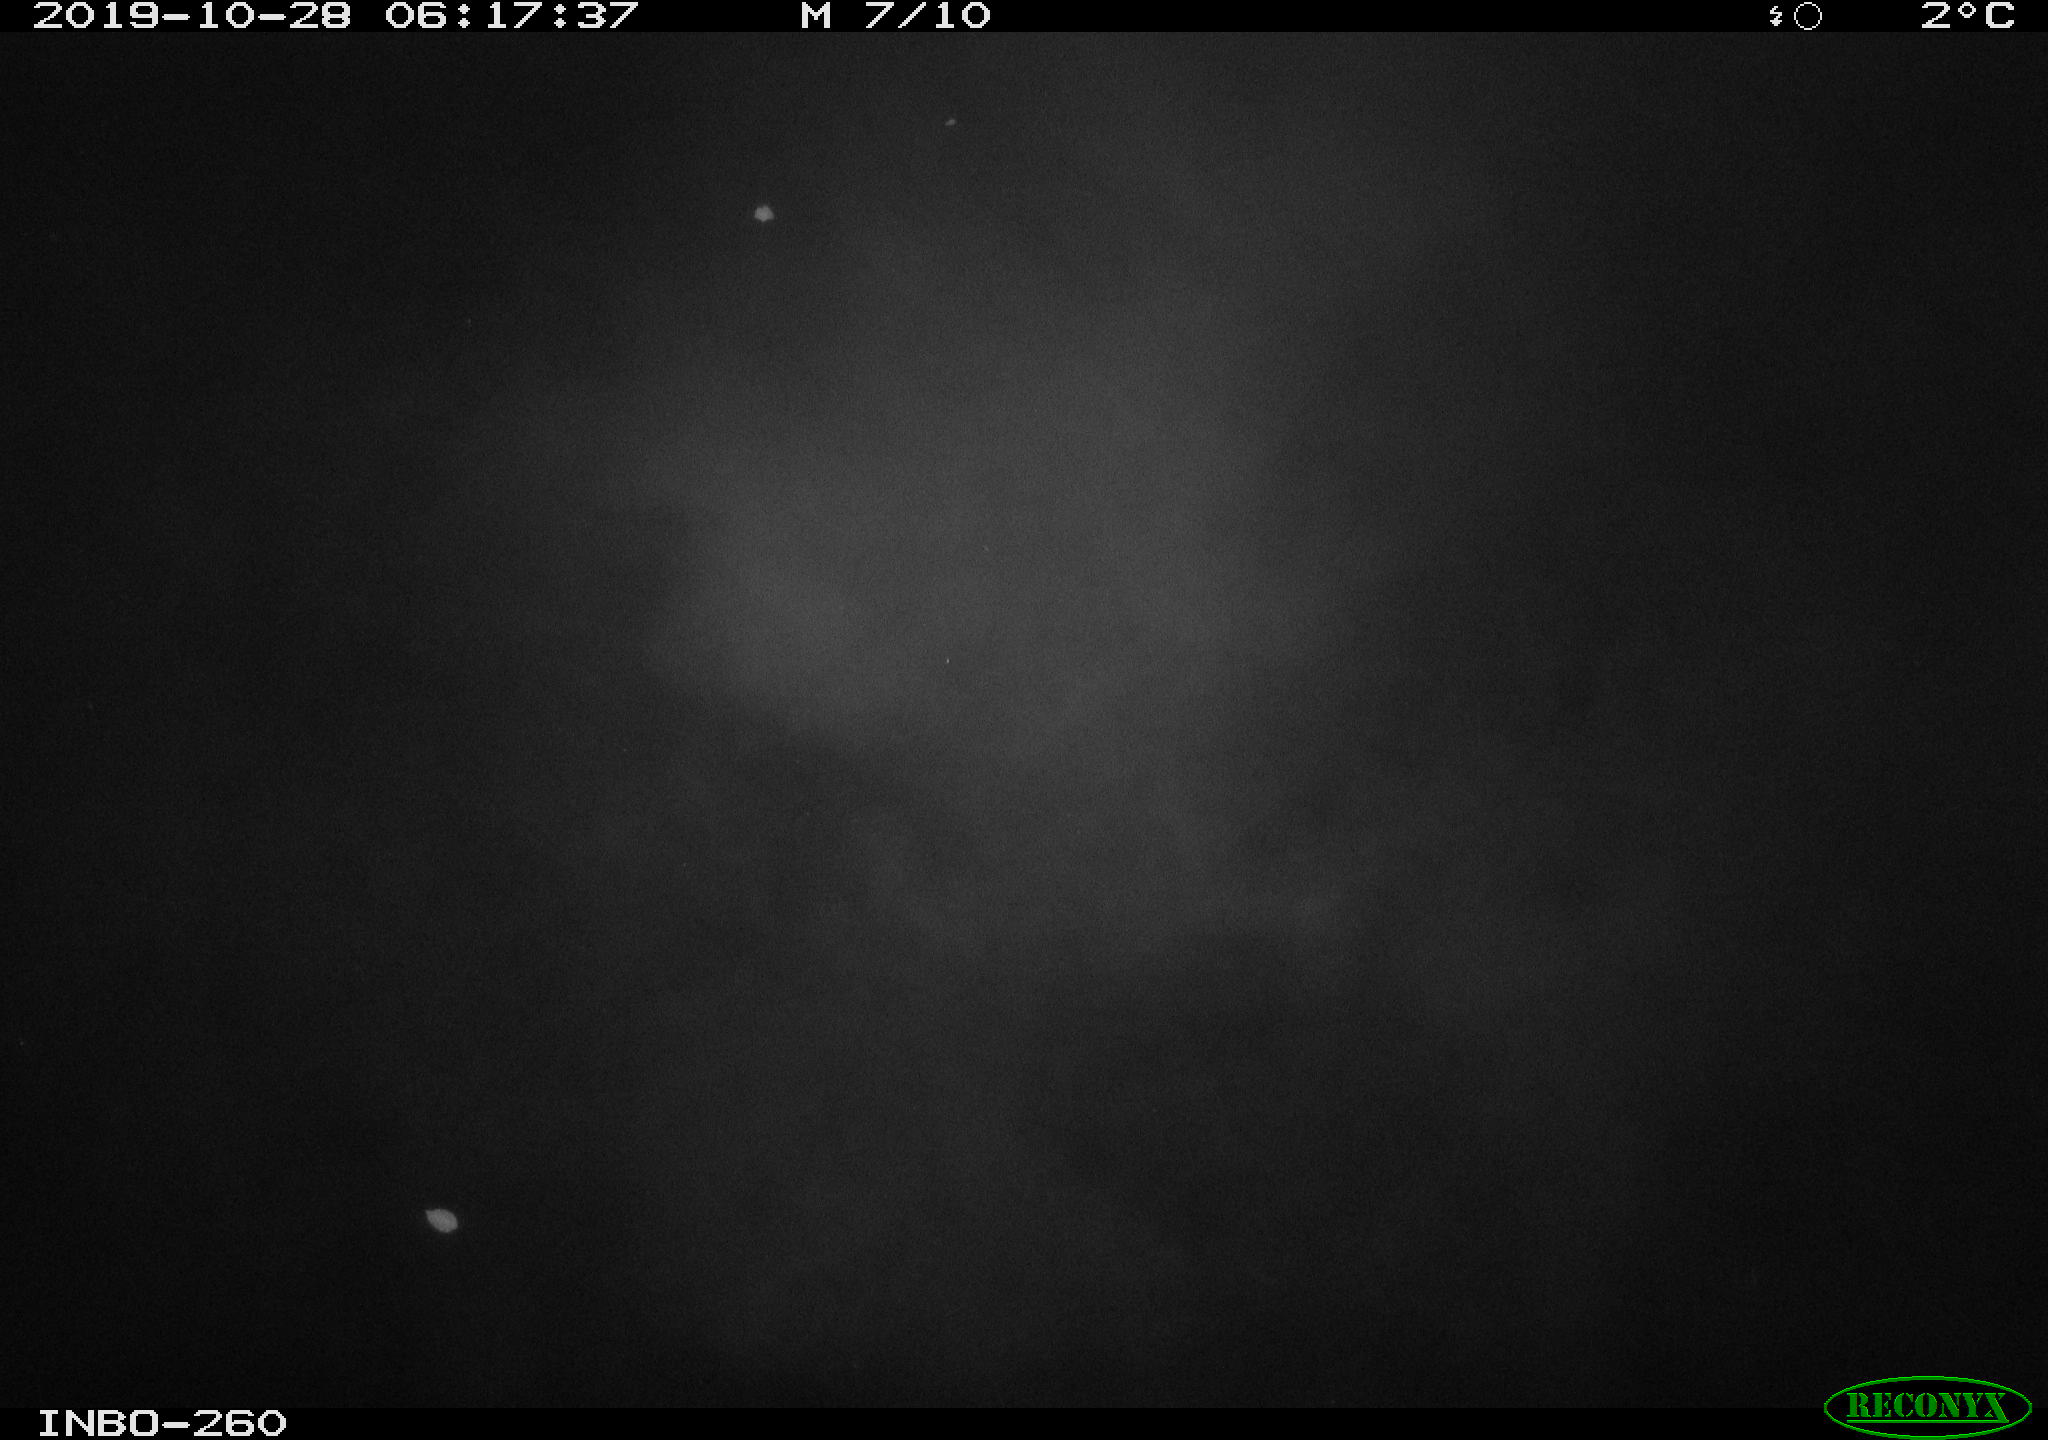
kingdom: Animalia
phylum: Chordata
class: Aves
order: Anseriformes
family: Anatidae
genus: Anas
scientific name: Anas platyrhynchos
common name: Mallard
